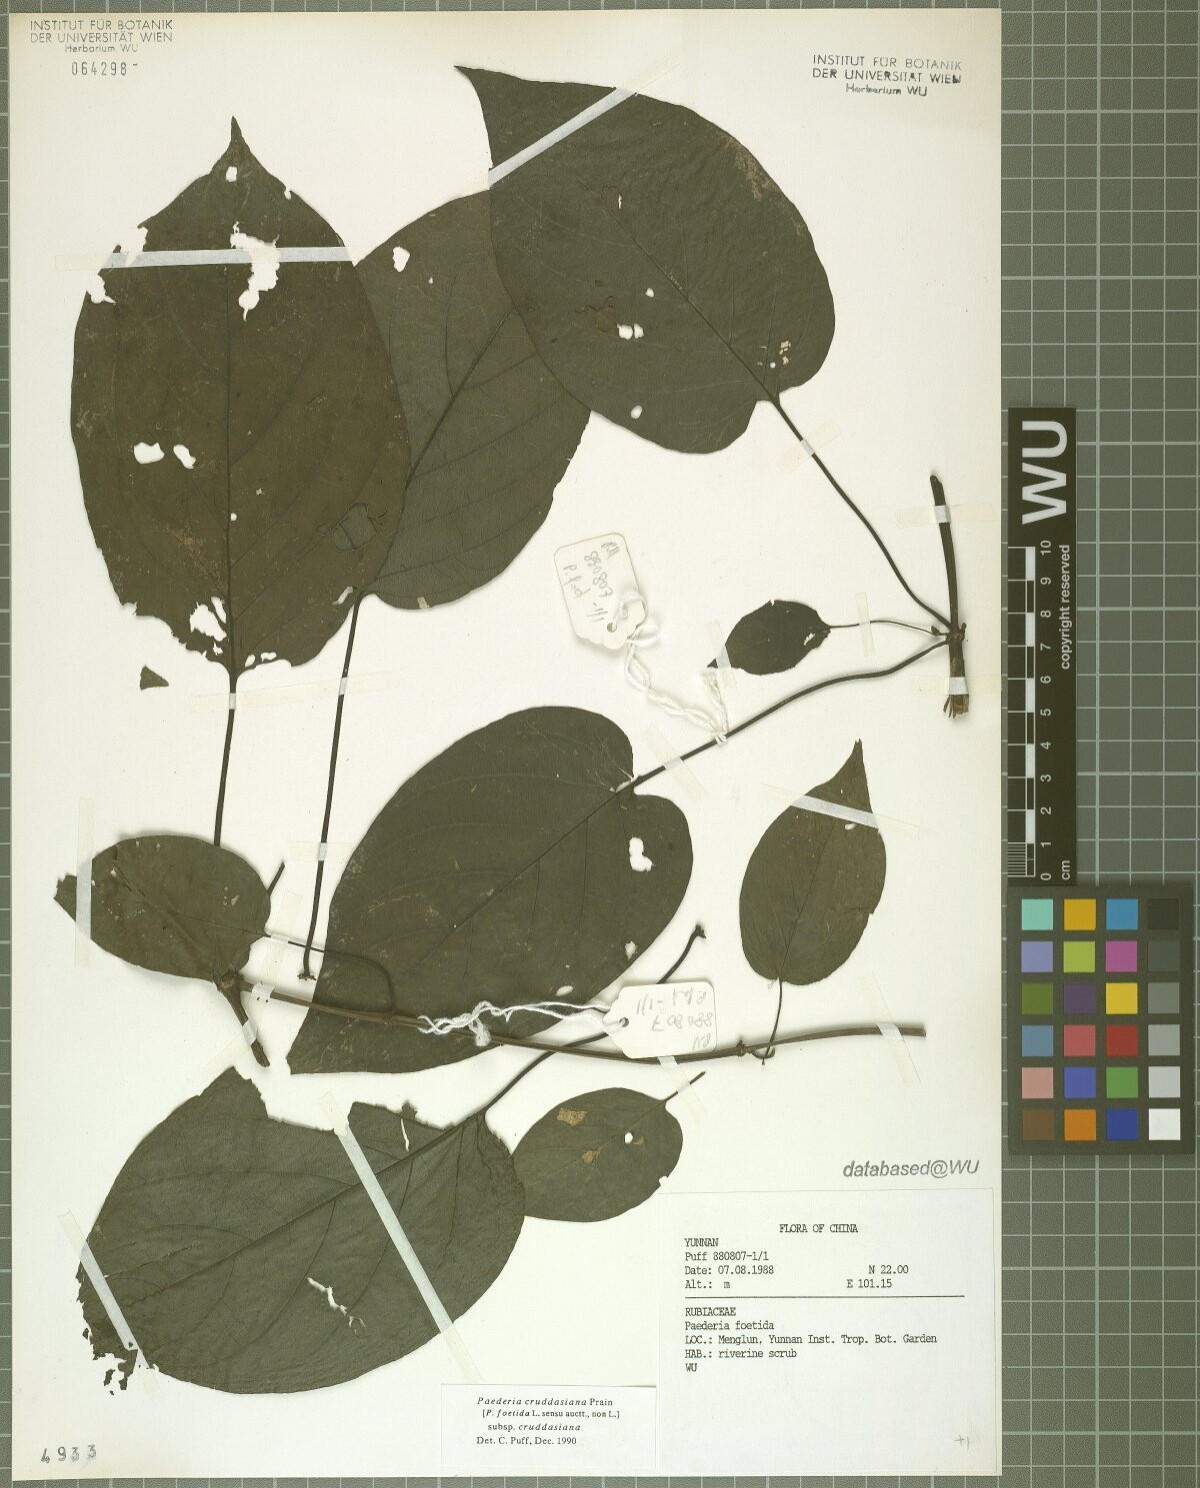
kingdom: Plantae
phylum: Tracheophyta
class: Magnoliopsida
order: Gentianales
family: Rubiaceae
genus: Paederia
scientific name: Paederia cruddasiana
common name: Sewer vine
